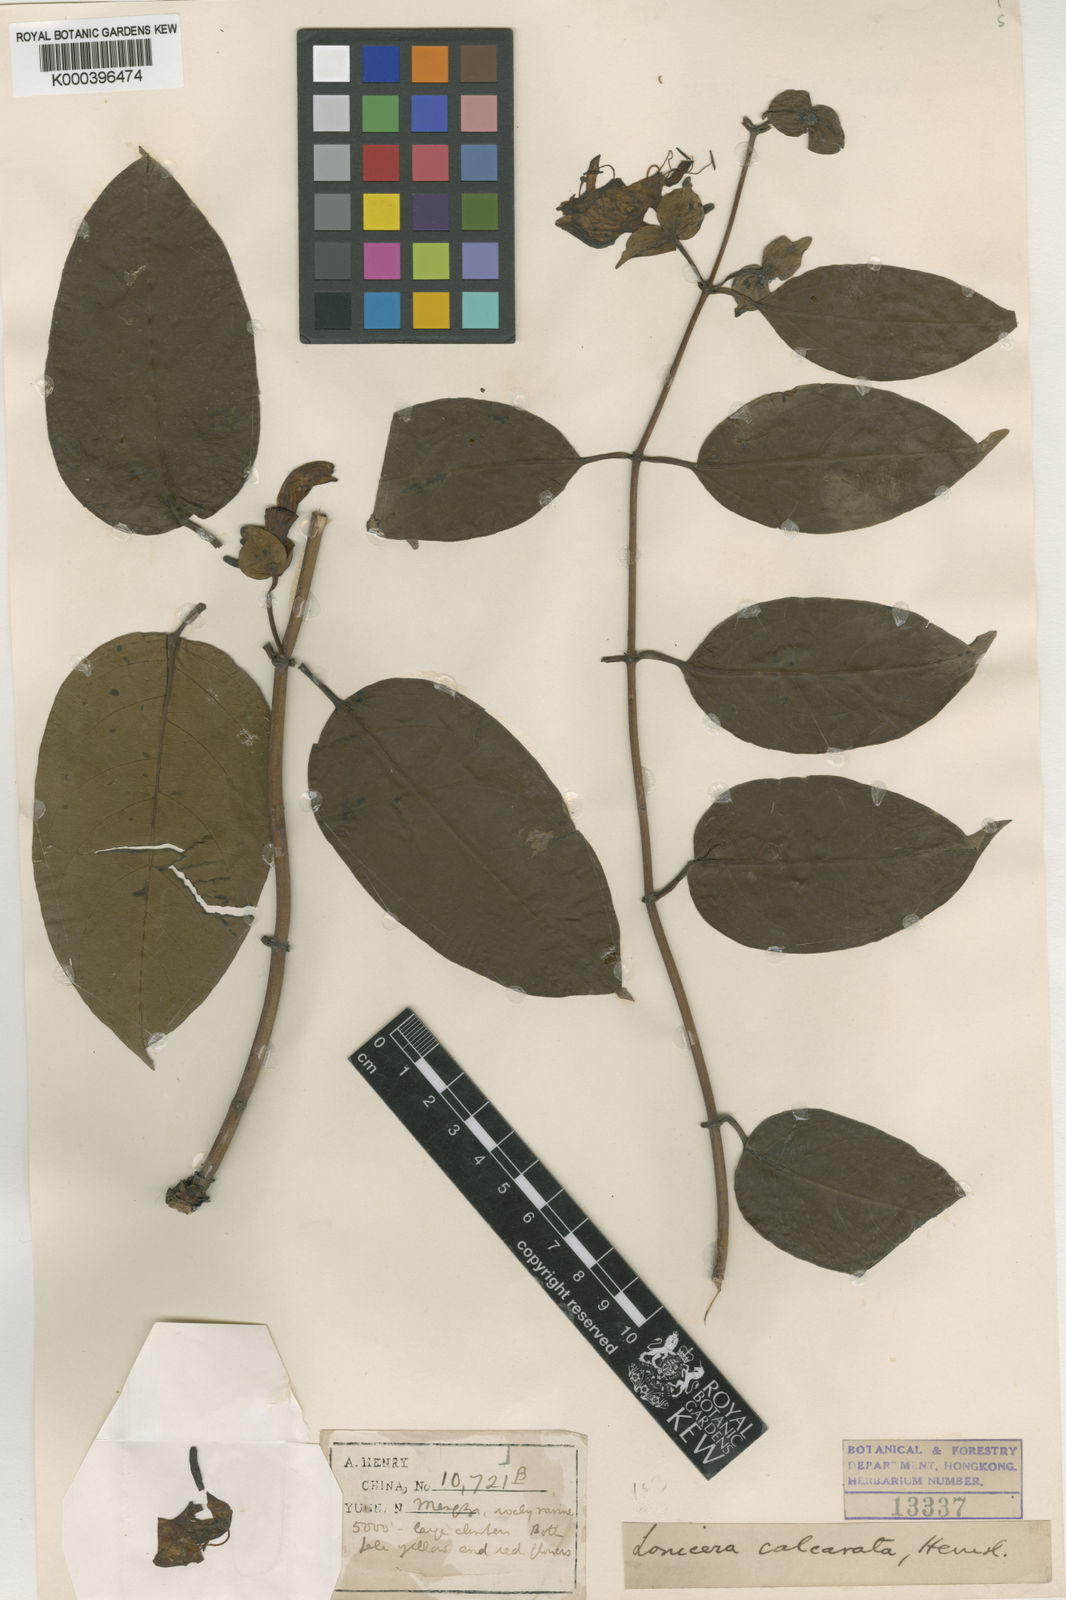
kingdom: Plantae
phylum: Tracheophyta
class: Magnoliopsida
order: Dipsacales
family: Caprifoliaceae
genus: Lonicera
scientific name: Lonicera calcarata
